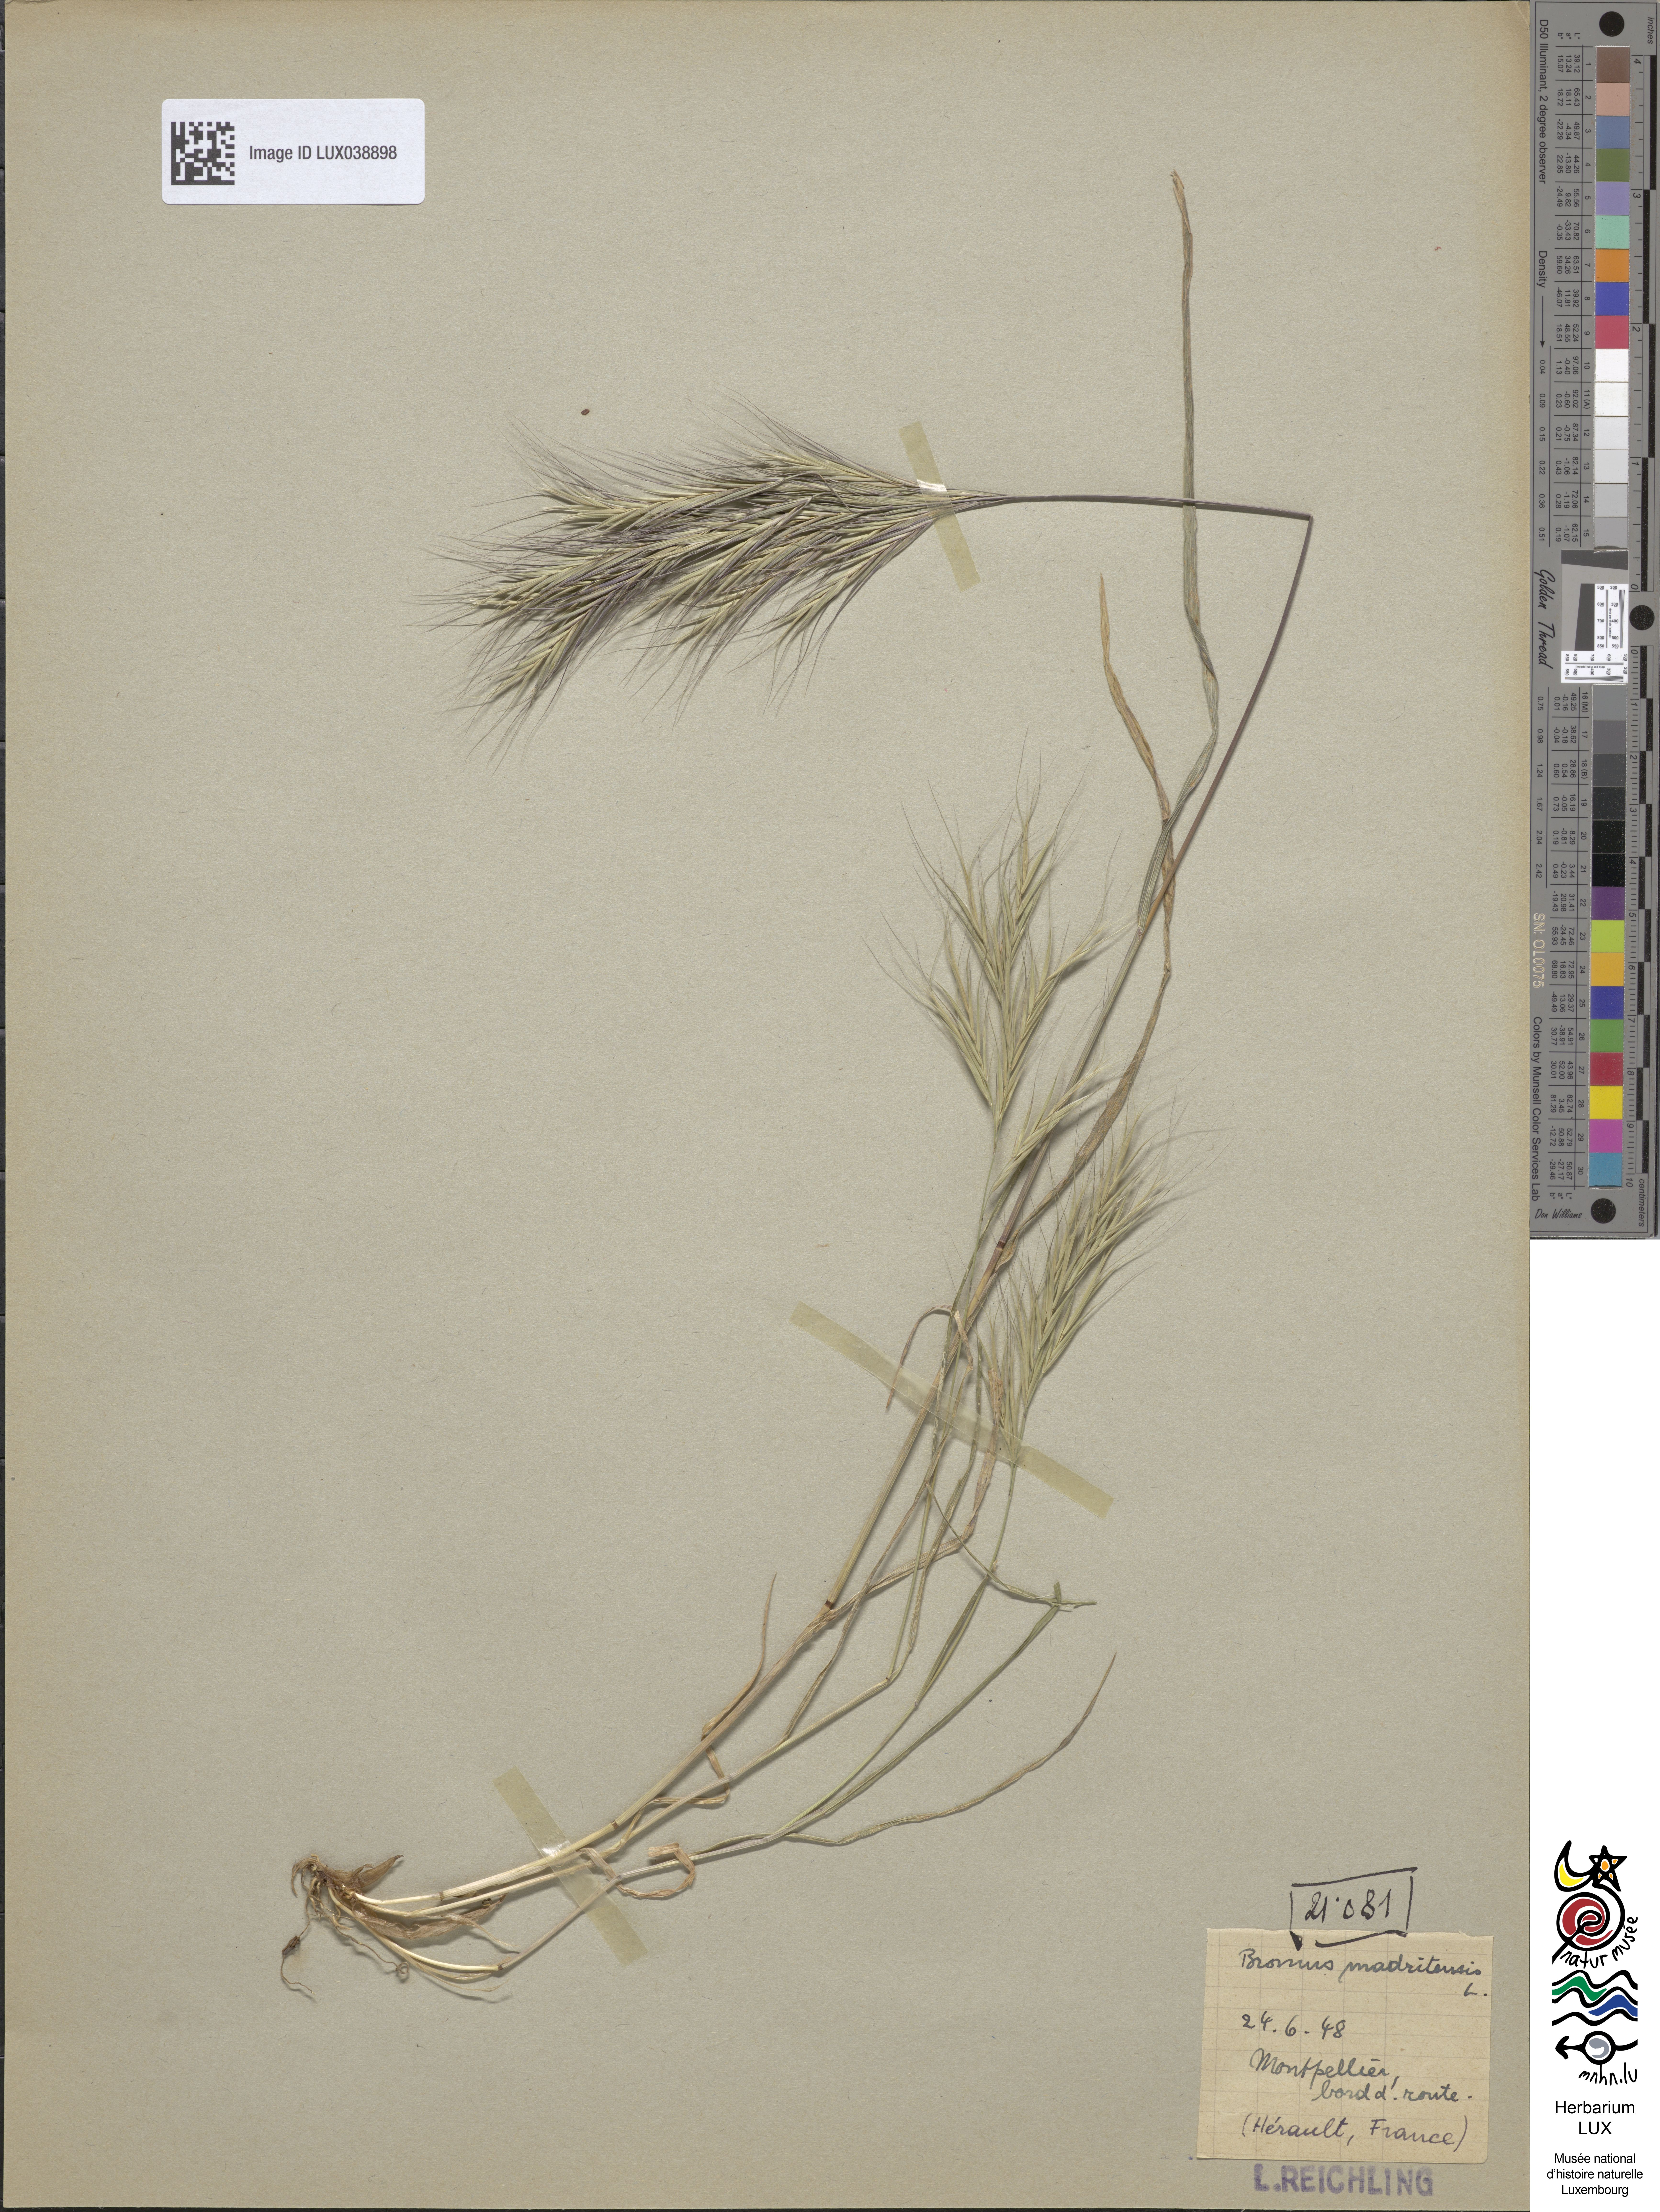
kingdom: Plantae
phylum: Tracheophyta
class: Liliopsida
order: Poales
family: Poaceae
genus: Bromus
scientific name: Bromus madritensis
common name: Compact brome
